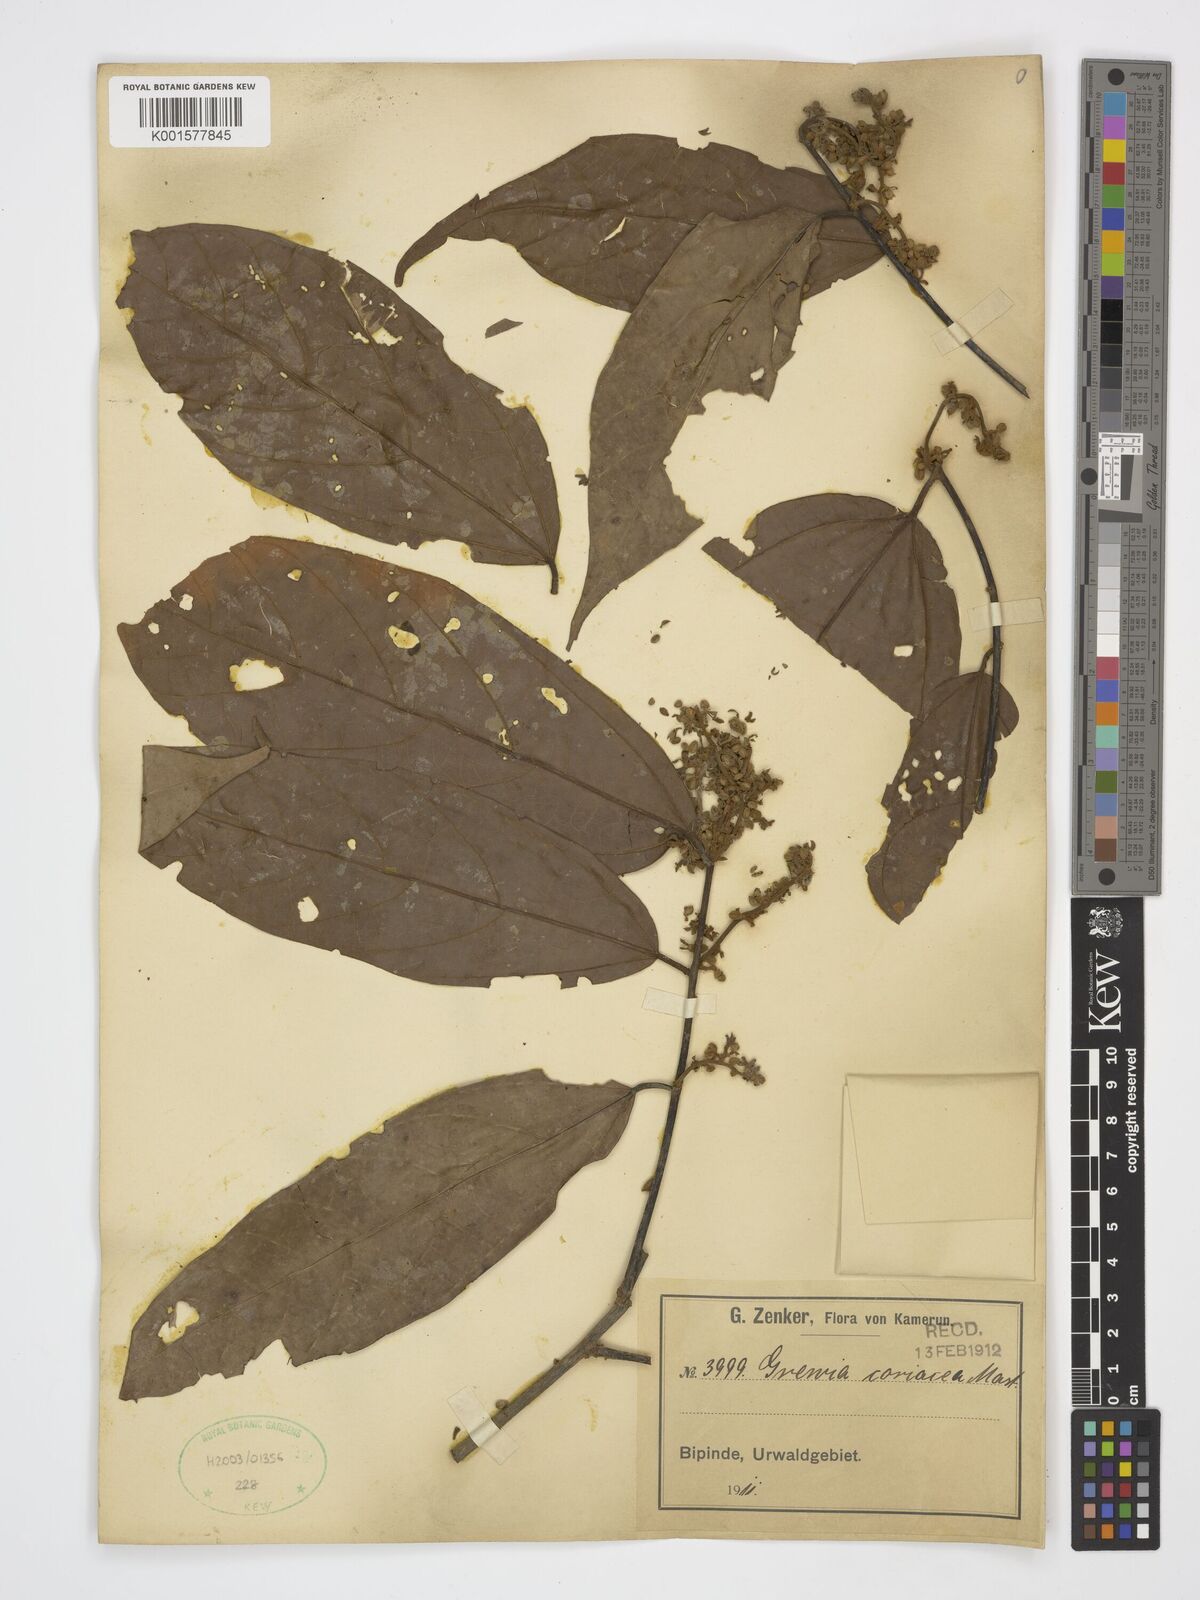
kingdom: Plantae
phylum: Tracheophyta
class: Magnoliopsida
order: Malvales
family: Malvaceae
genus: Microcos
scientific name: Microcos coriacea
